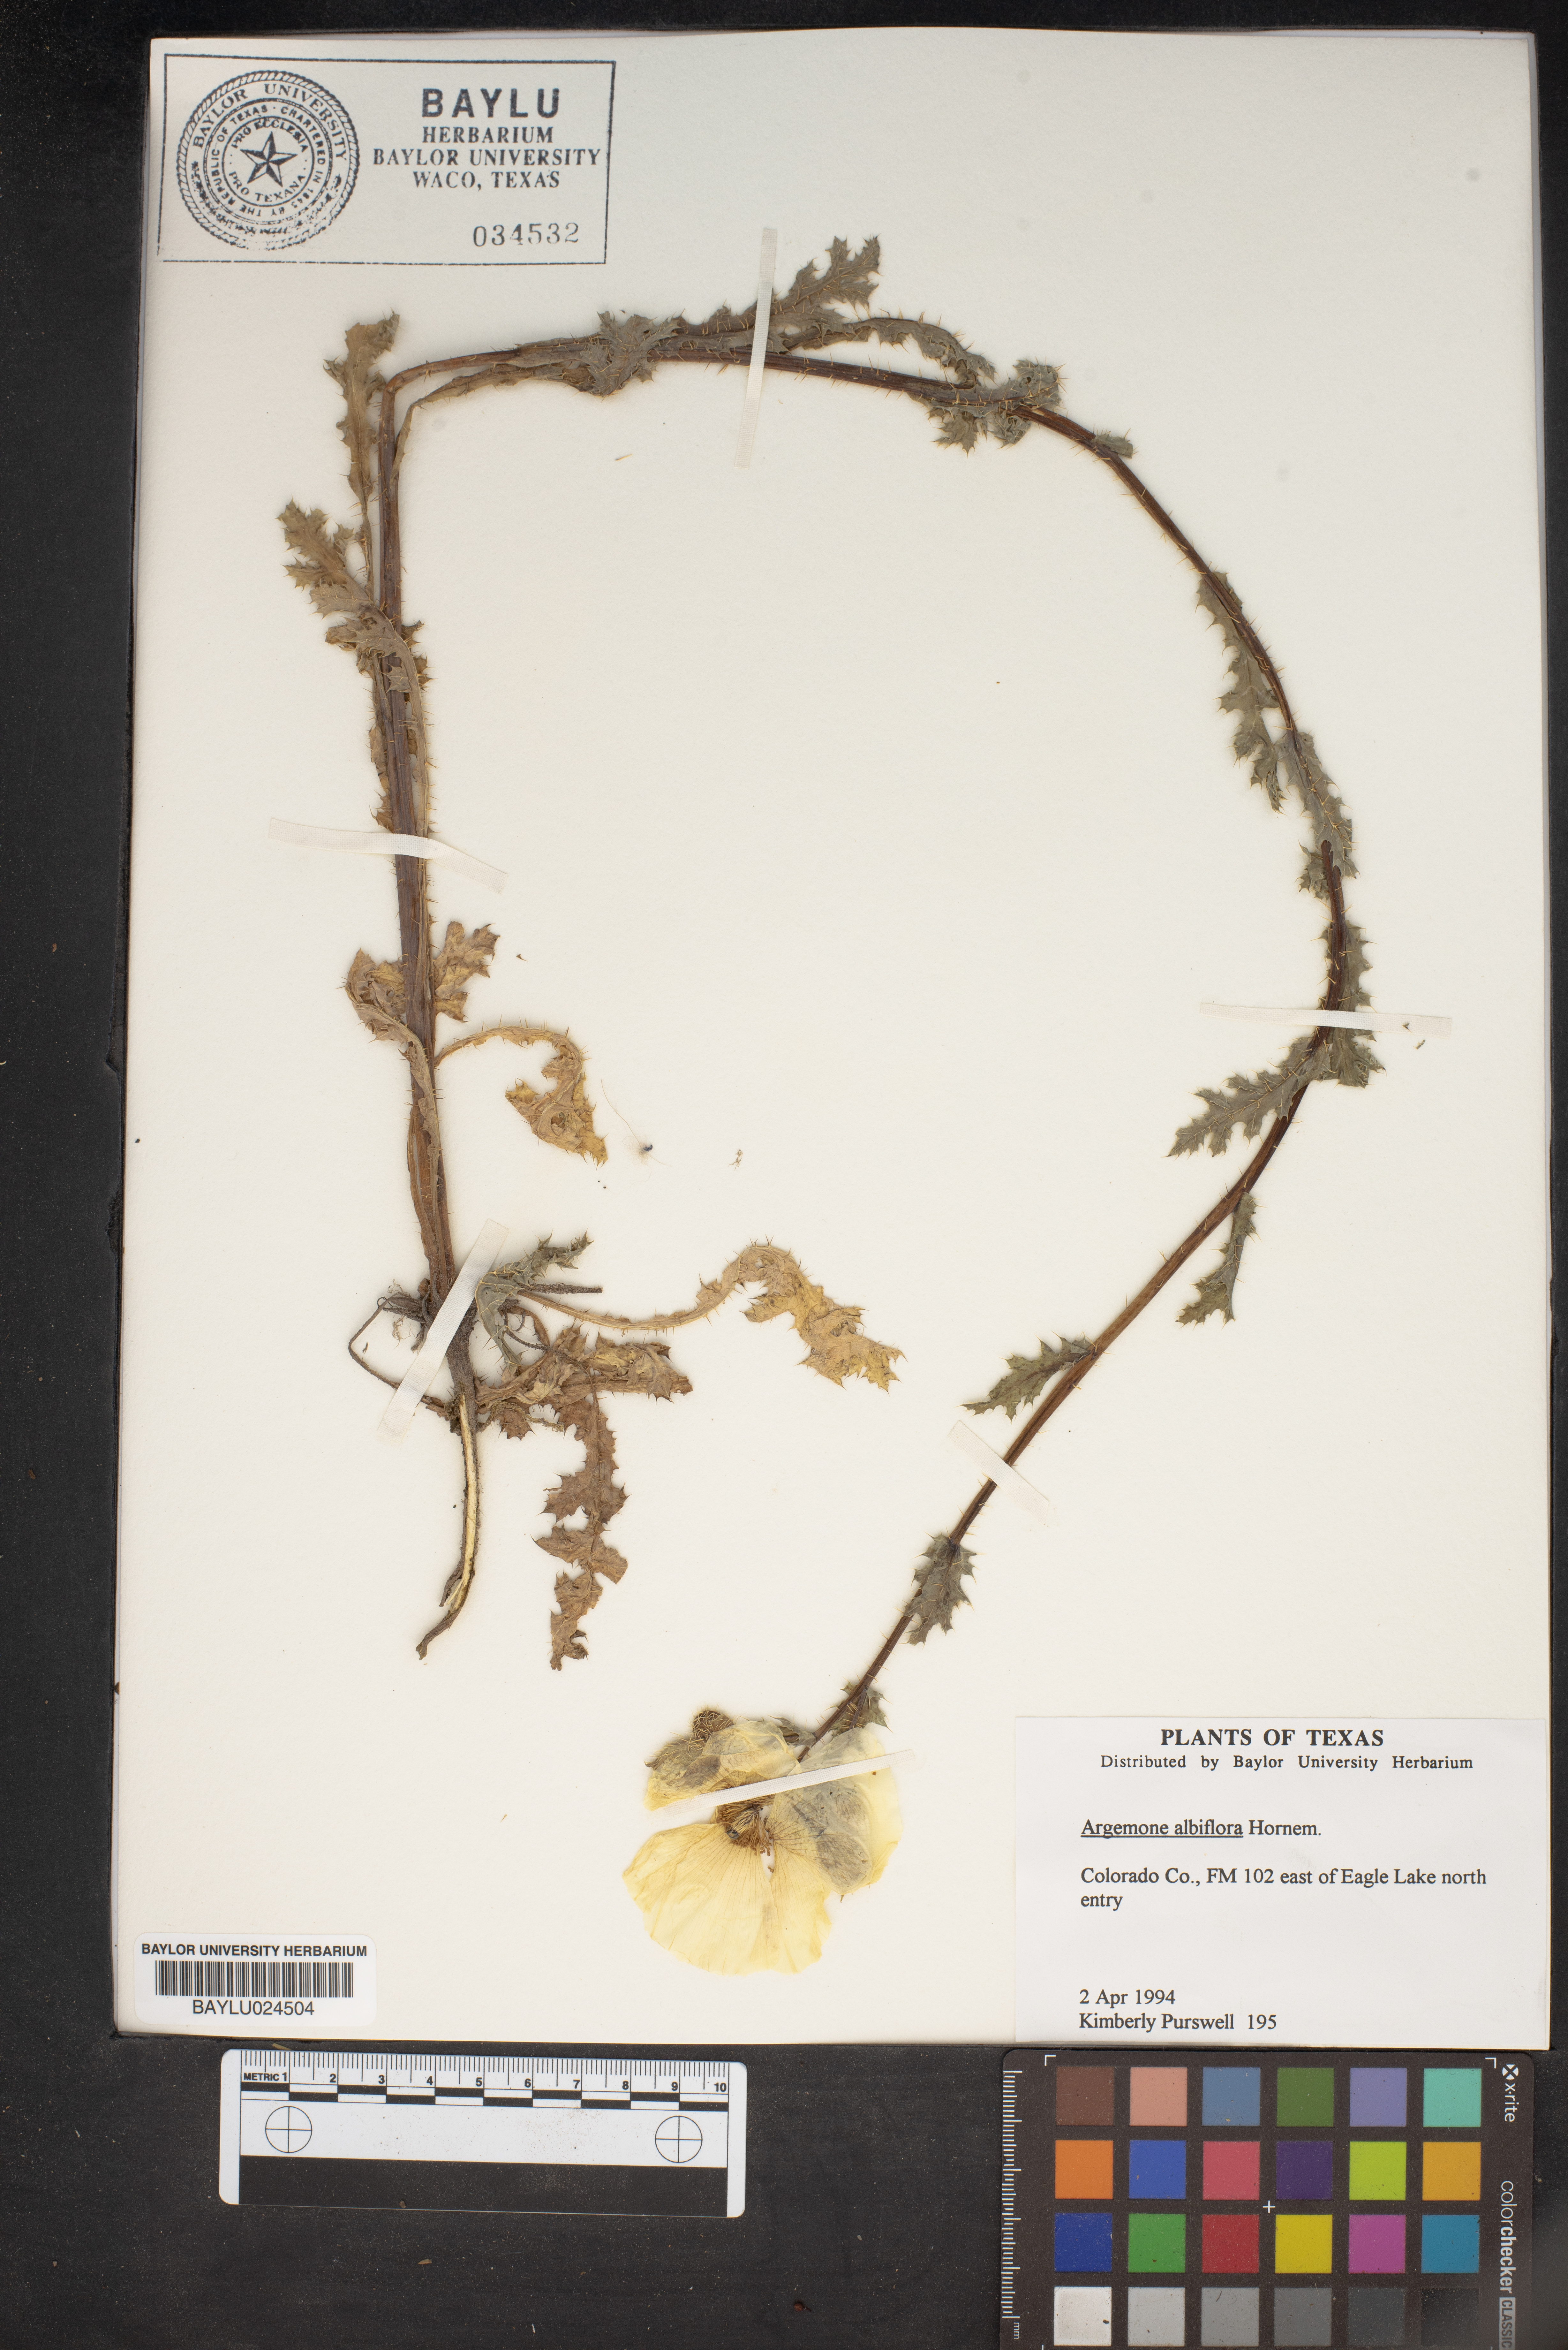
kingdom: Plantae
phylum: Tracheophyta
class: Magnoliopsida
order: Ranunculales
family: Papaveraceae
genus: Argemone
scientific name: Argemone albiflora
